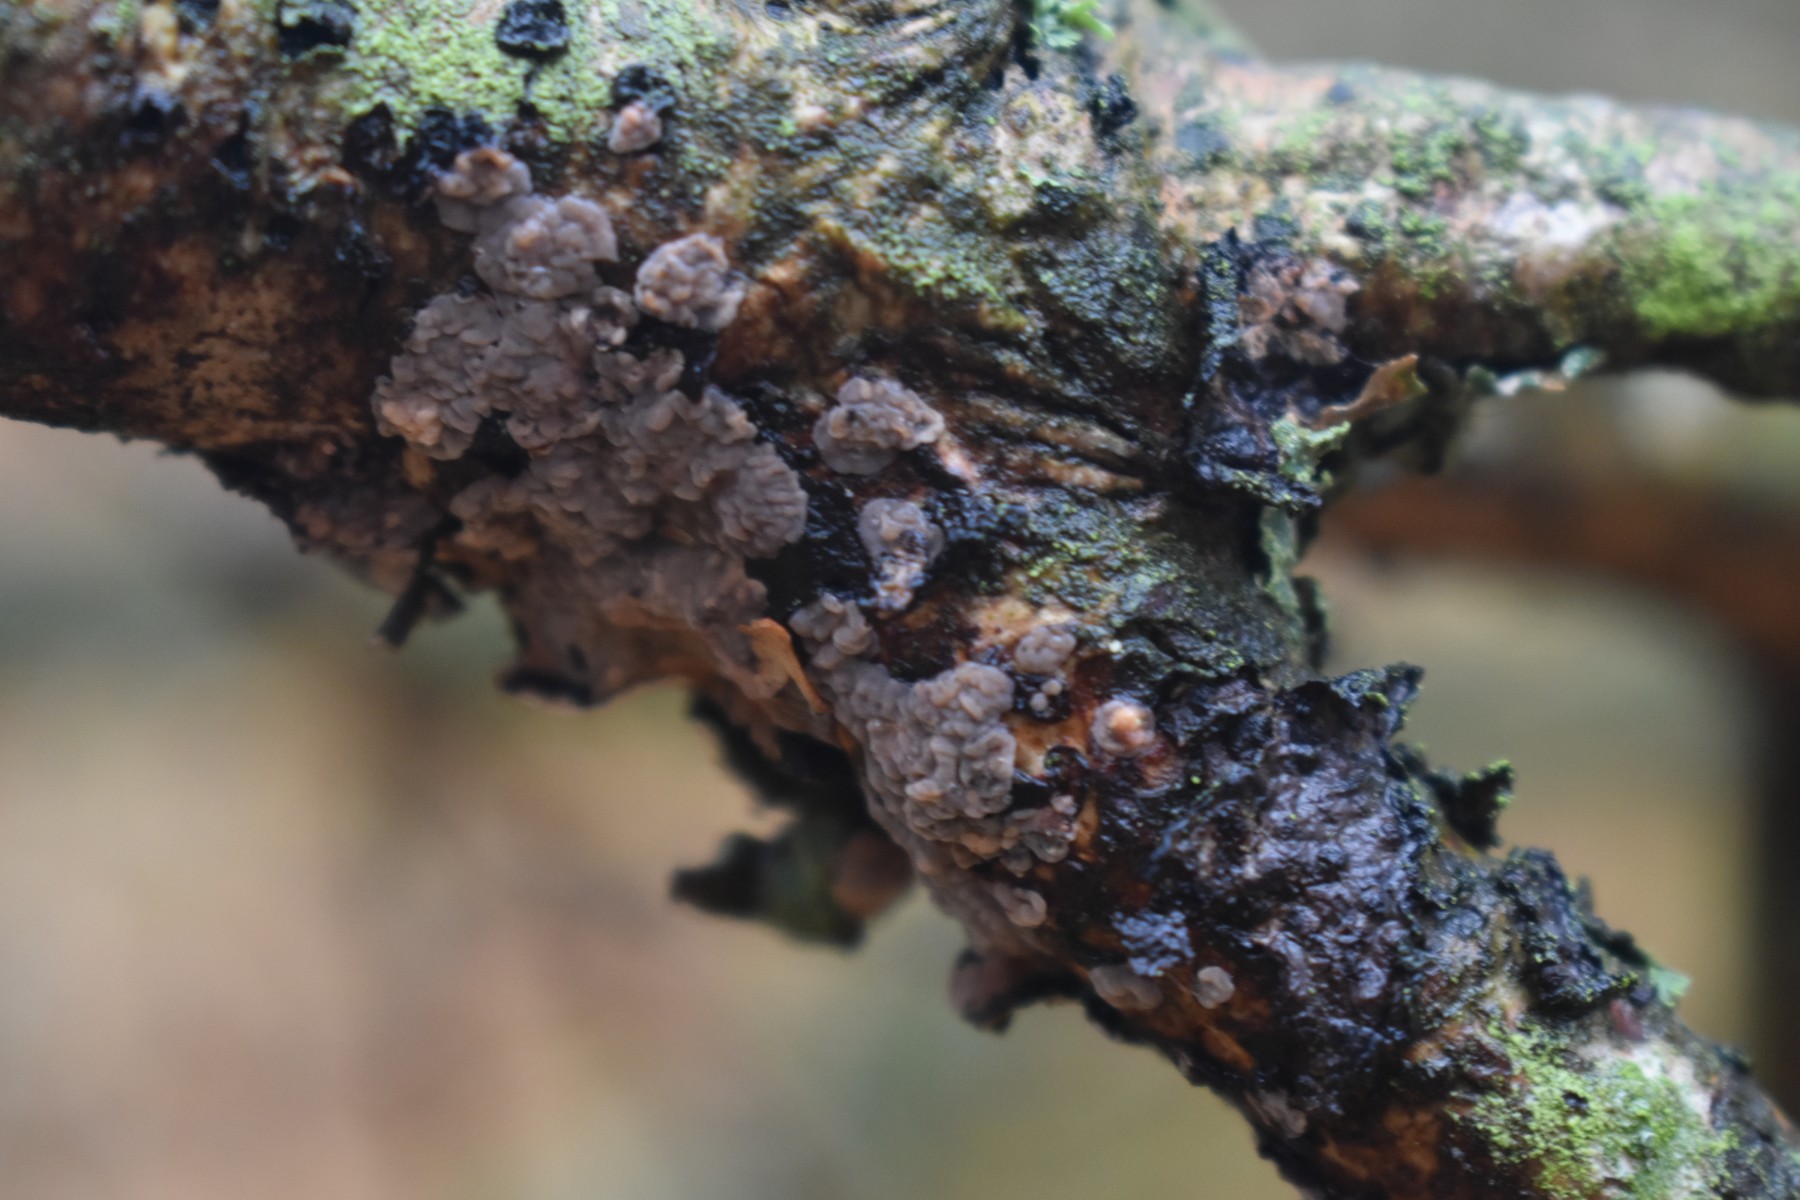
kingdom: Fungi
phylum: Basidiomycota
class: Agaricomycetes
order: Russulales
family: Peniophoraceae
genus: Peniophora
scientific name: Peniophora quercina
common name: ege-voksskind
